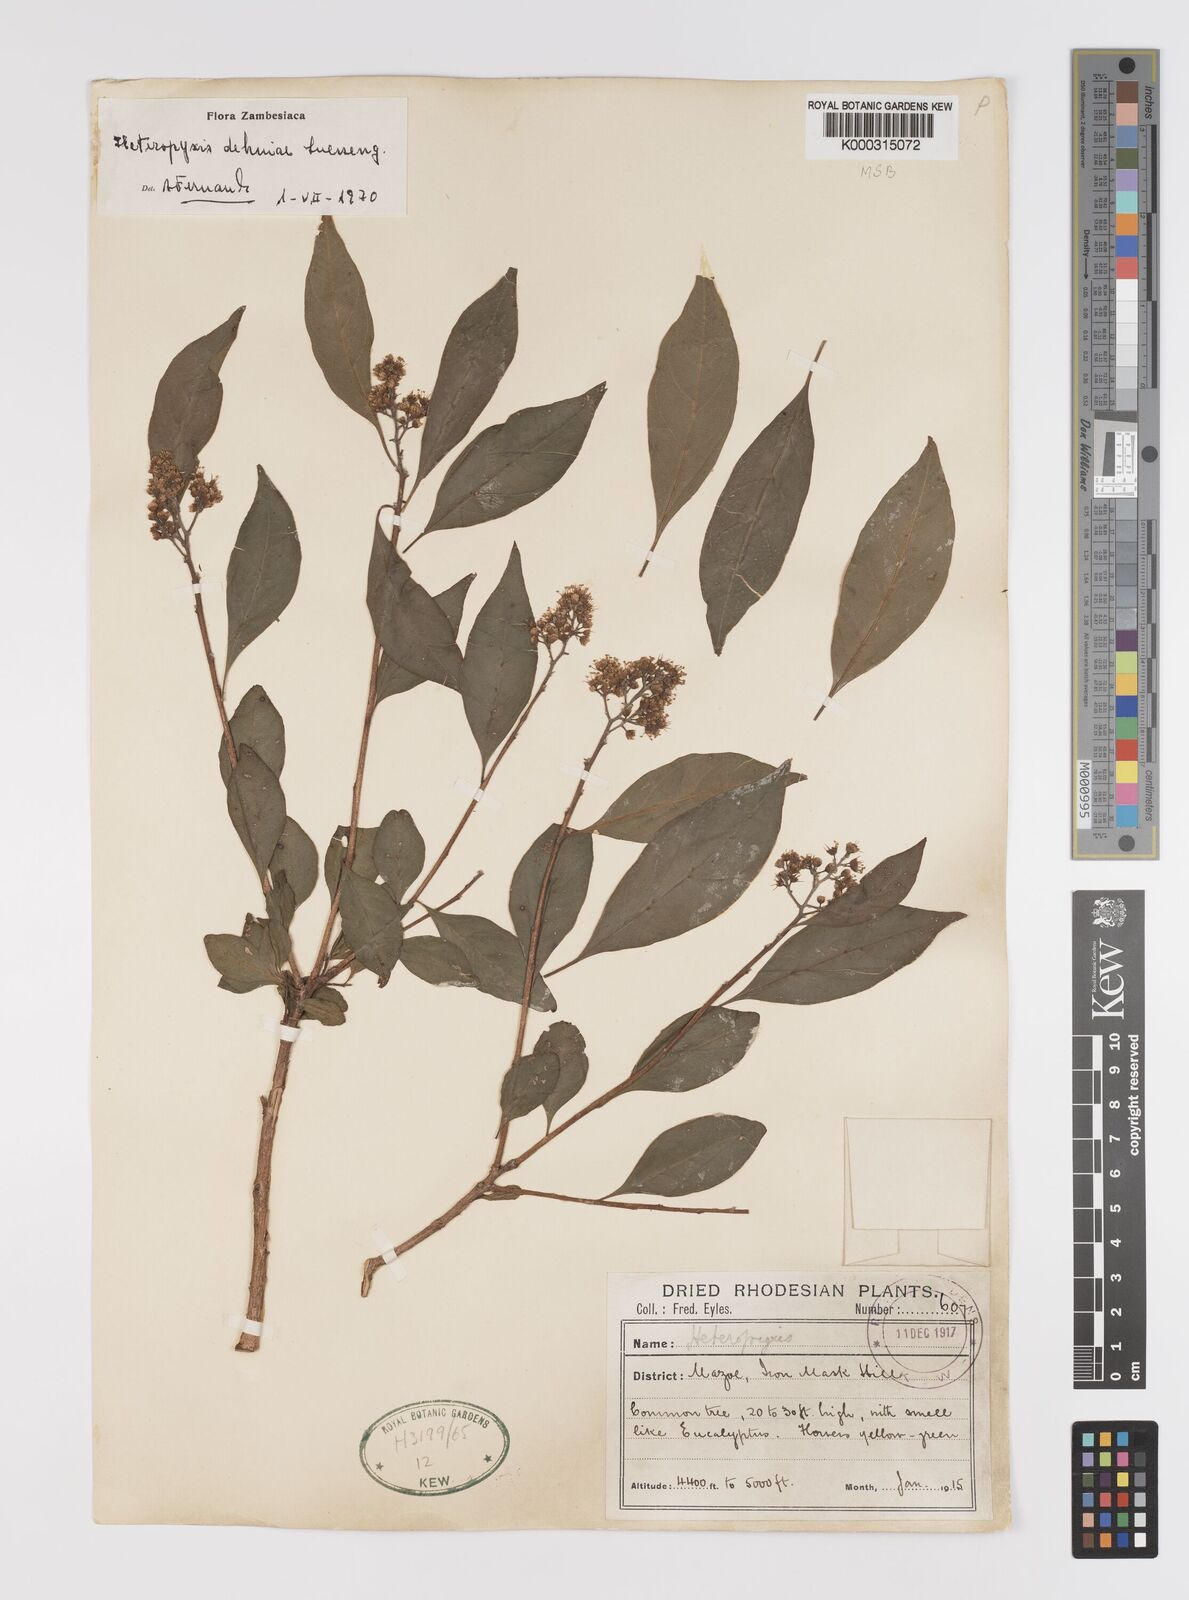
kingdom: Plantae
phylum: Tracheophyta
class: Magnoliopsida
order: Myrtales
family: Myrtaceae
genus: Heteropyxis
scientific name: Heteropyxis dehniae
